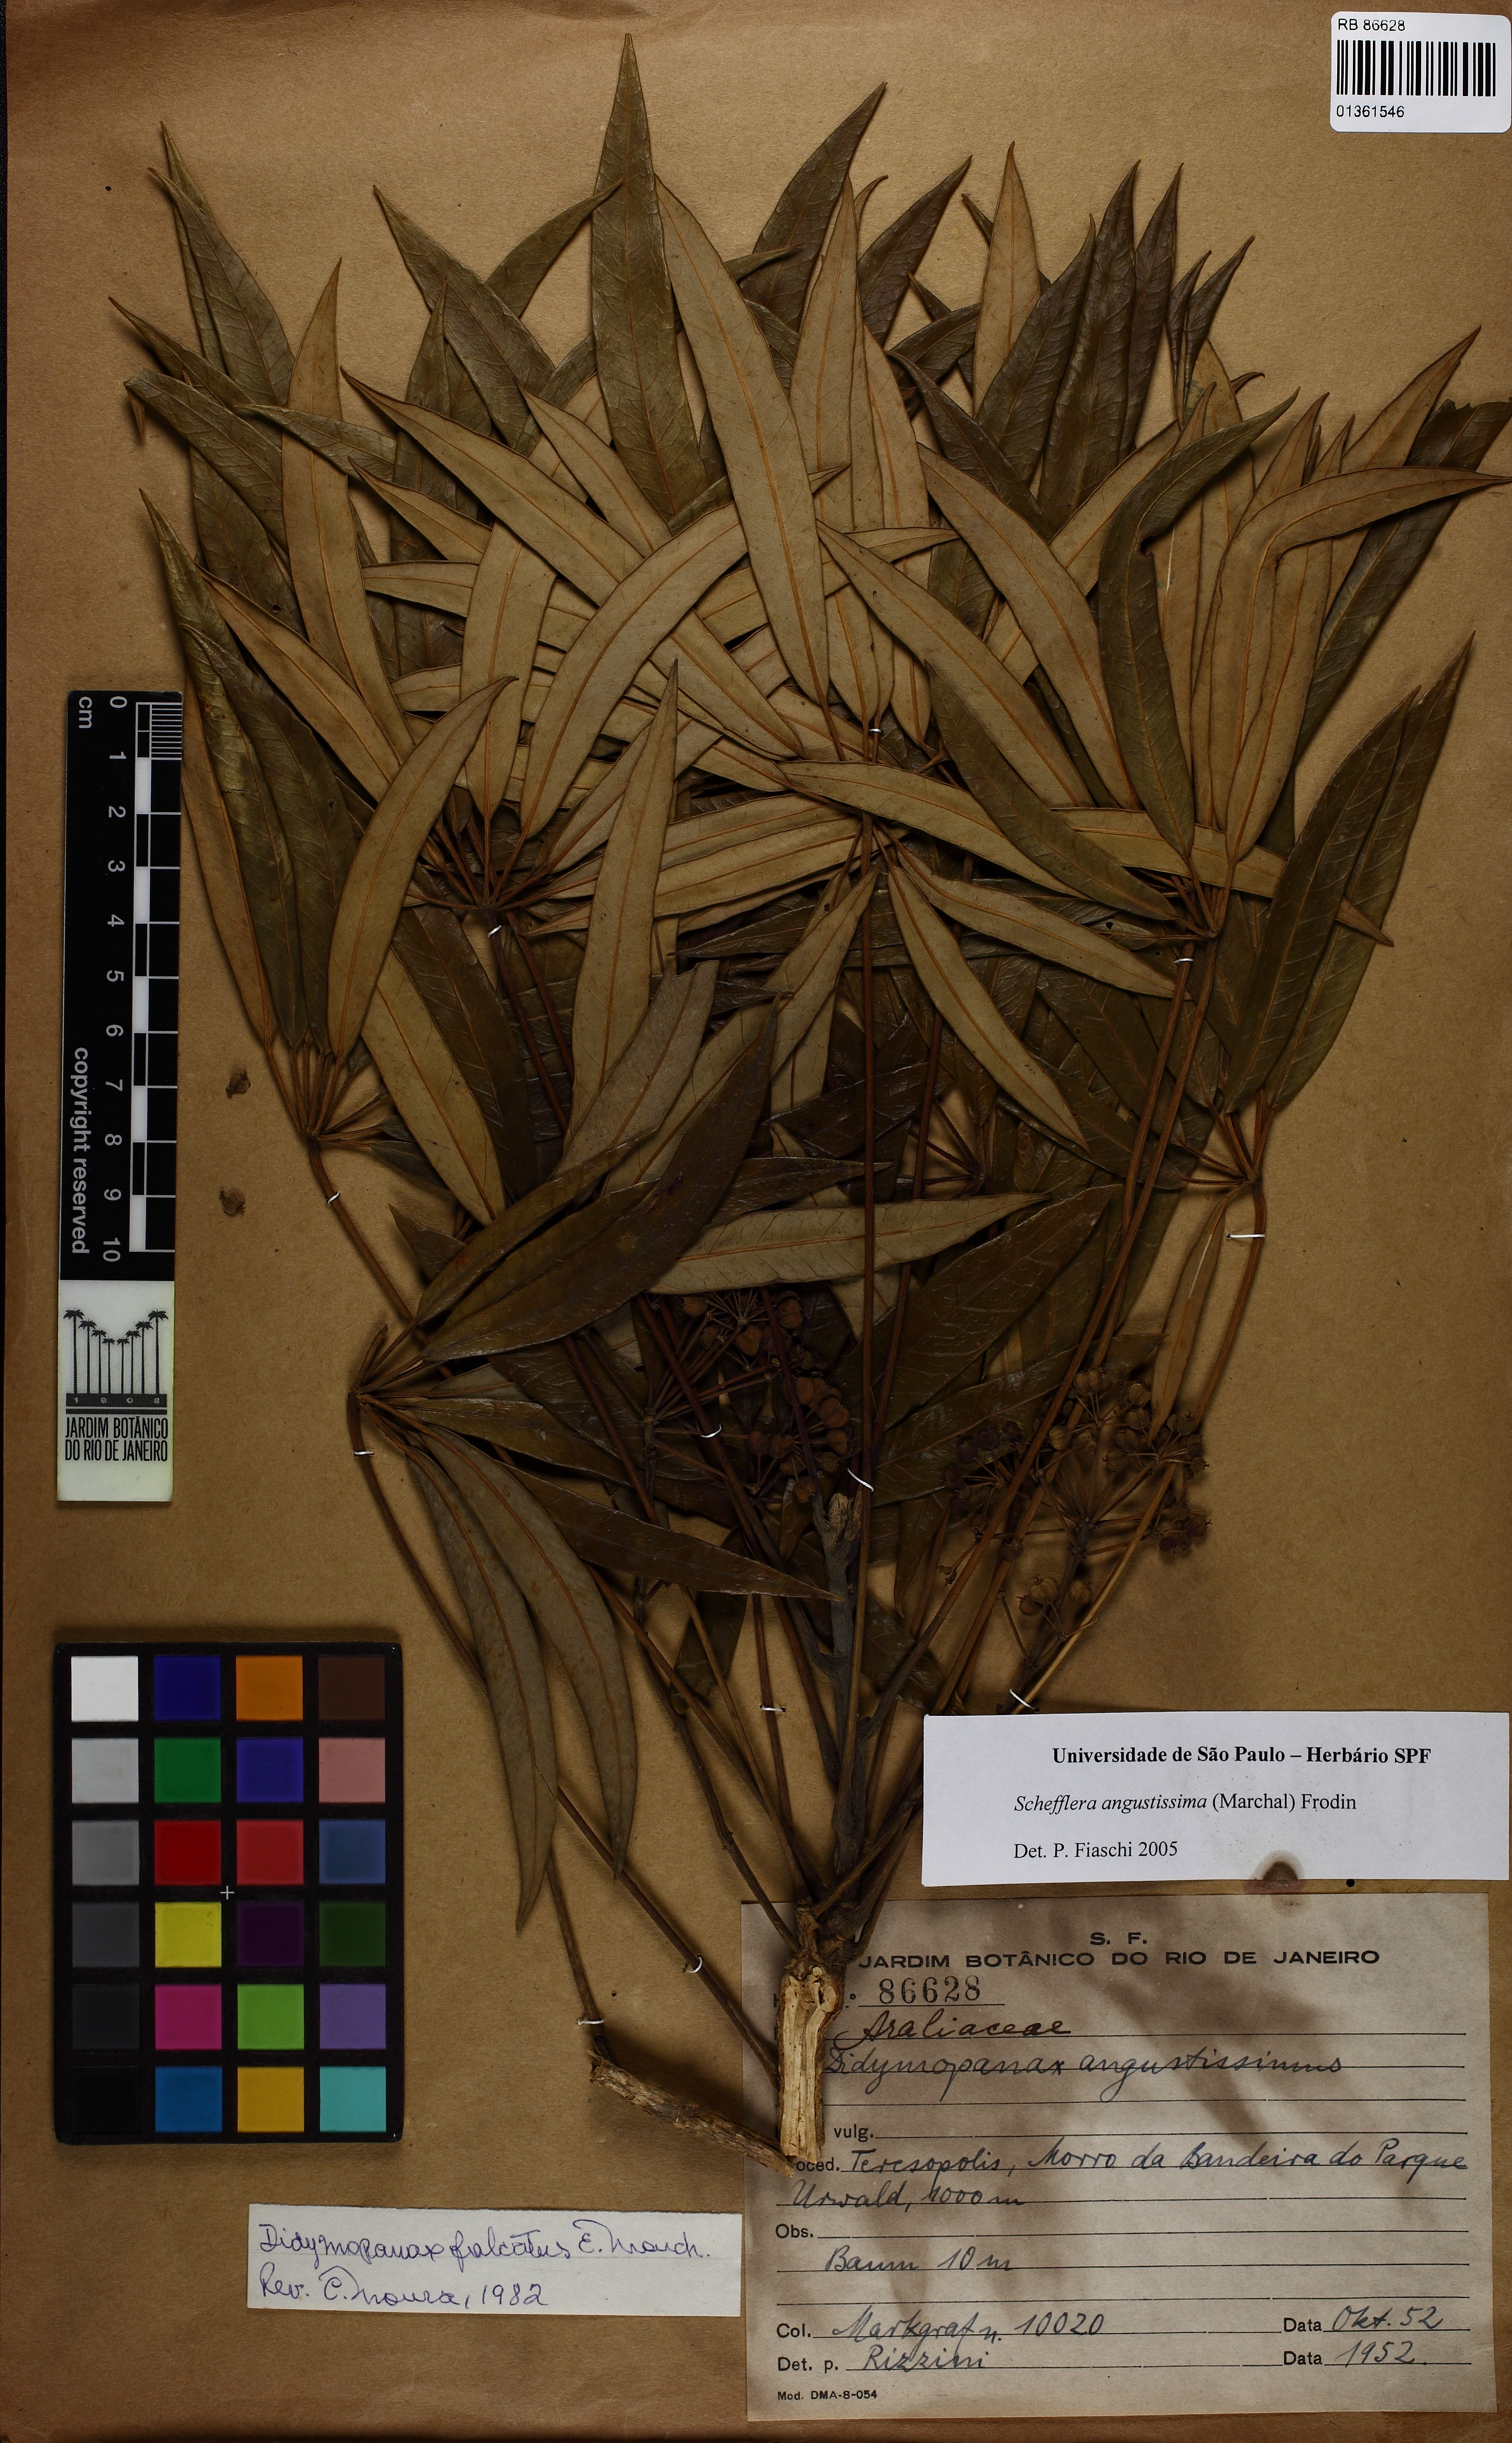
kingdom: Plantae
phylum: Tracheophyta
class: Magnoliopsida
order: Apiales
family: Araliaceae
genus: Didymopanax
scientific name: Didymopanax angustissimus
